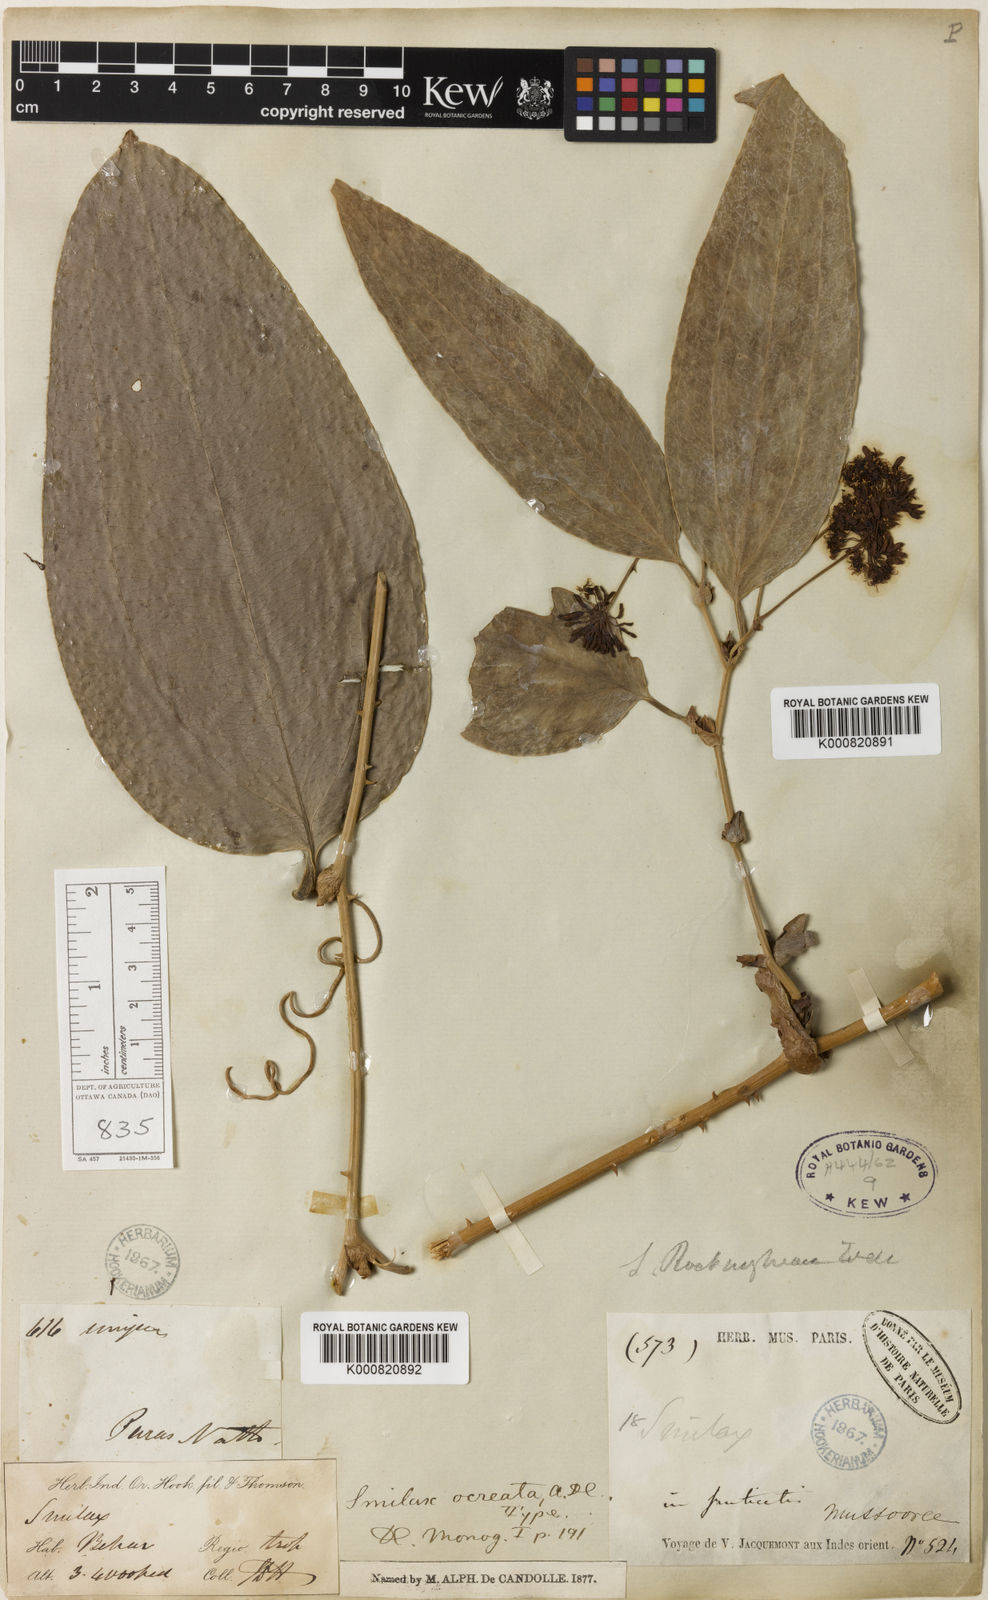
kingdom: Plantae
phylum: Tracheophyta
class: Liliopsida
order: Liliales
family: Smilacaceae
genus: Smilax
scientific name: Smilax ocreata
